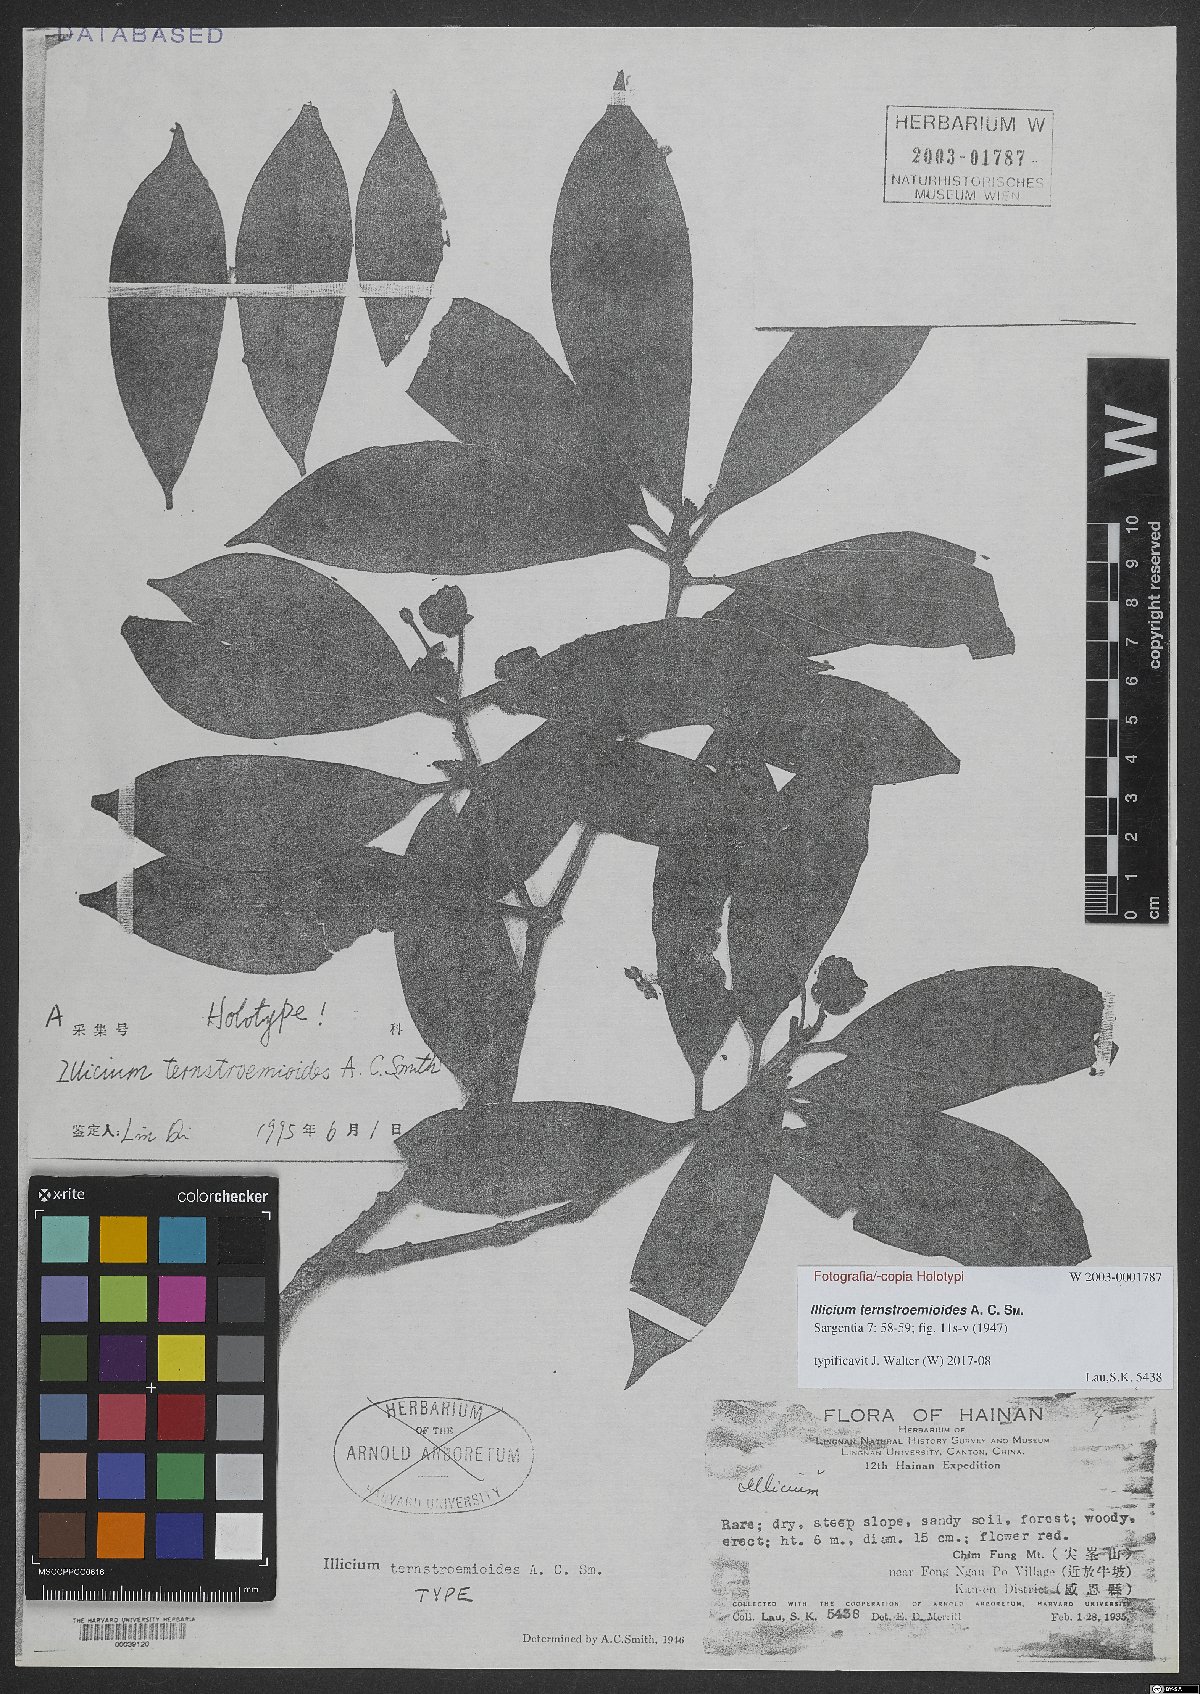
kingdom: Plantae
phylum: Tracheophyta
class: Magnoliopsida
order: Austrobaileyales
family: Schisandraceae
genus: Illicium
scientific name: Illicium ternstroemioides
